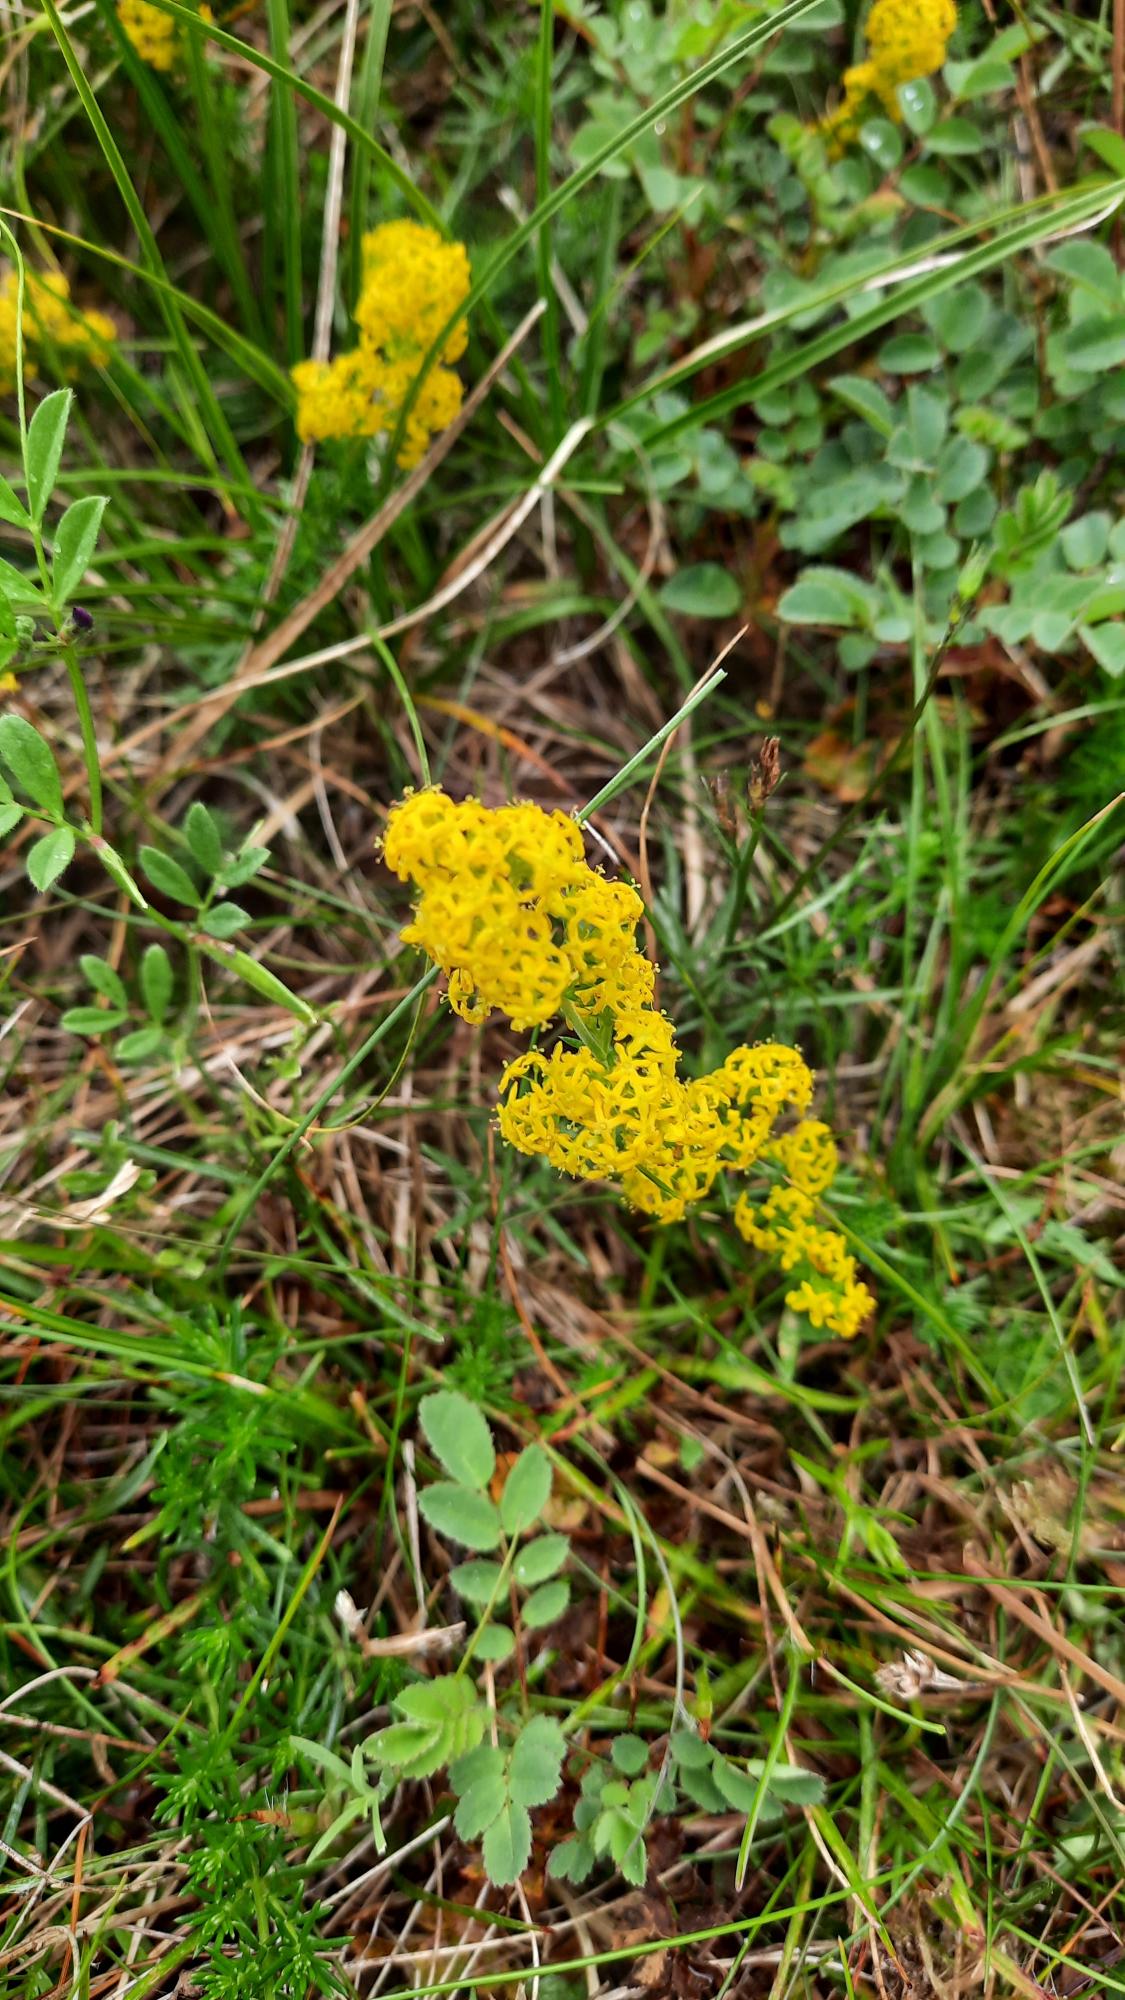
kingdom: Plantae
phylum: Tracheophyta
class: Magnoliopsida
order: Gentianales
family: Rubiaceae
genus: Galium
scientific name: Galium verum
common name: Gul snerre
